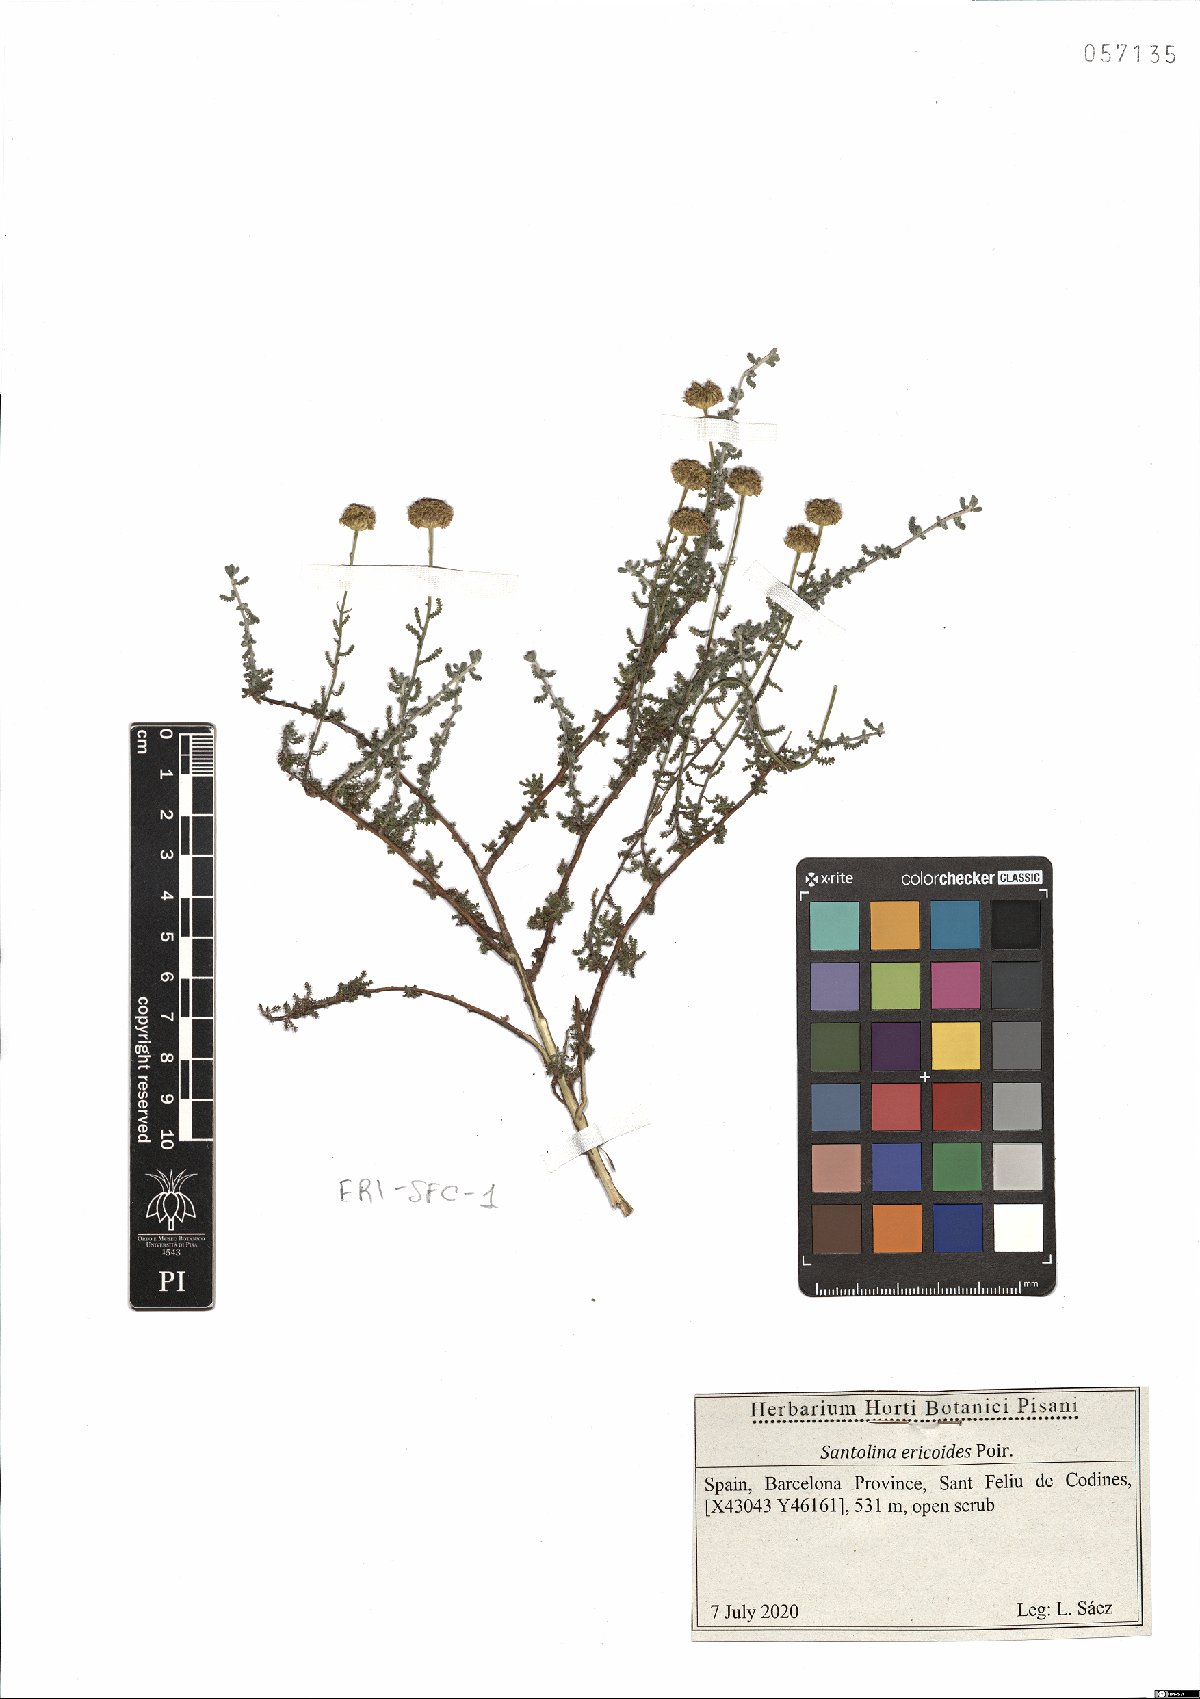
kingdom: Plantae
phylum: Tracheophyta
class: Magnoliopsida
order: Asterales
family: Asteraceae
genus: Santolina
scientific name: Santolina ericoides
